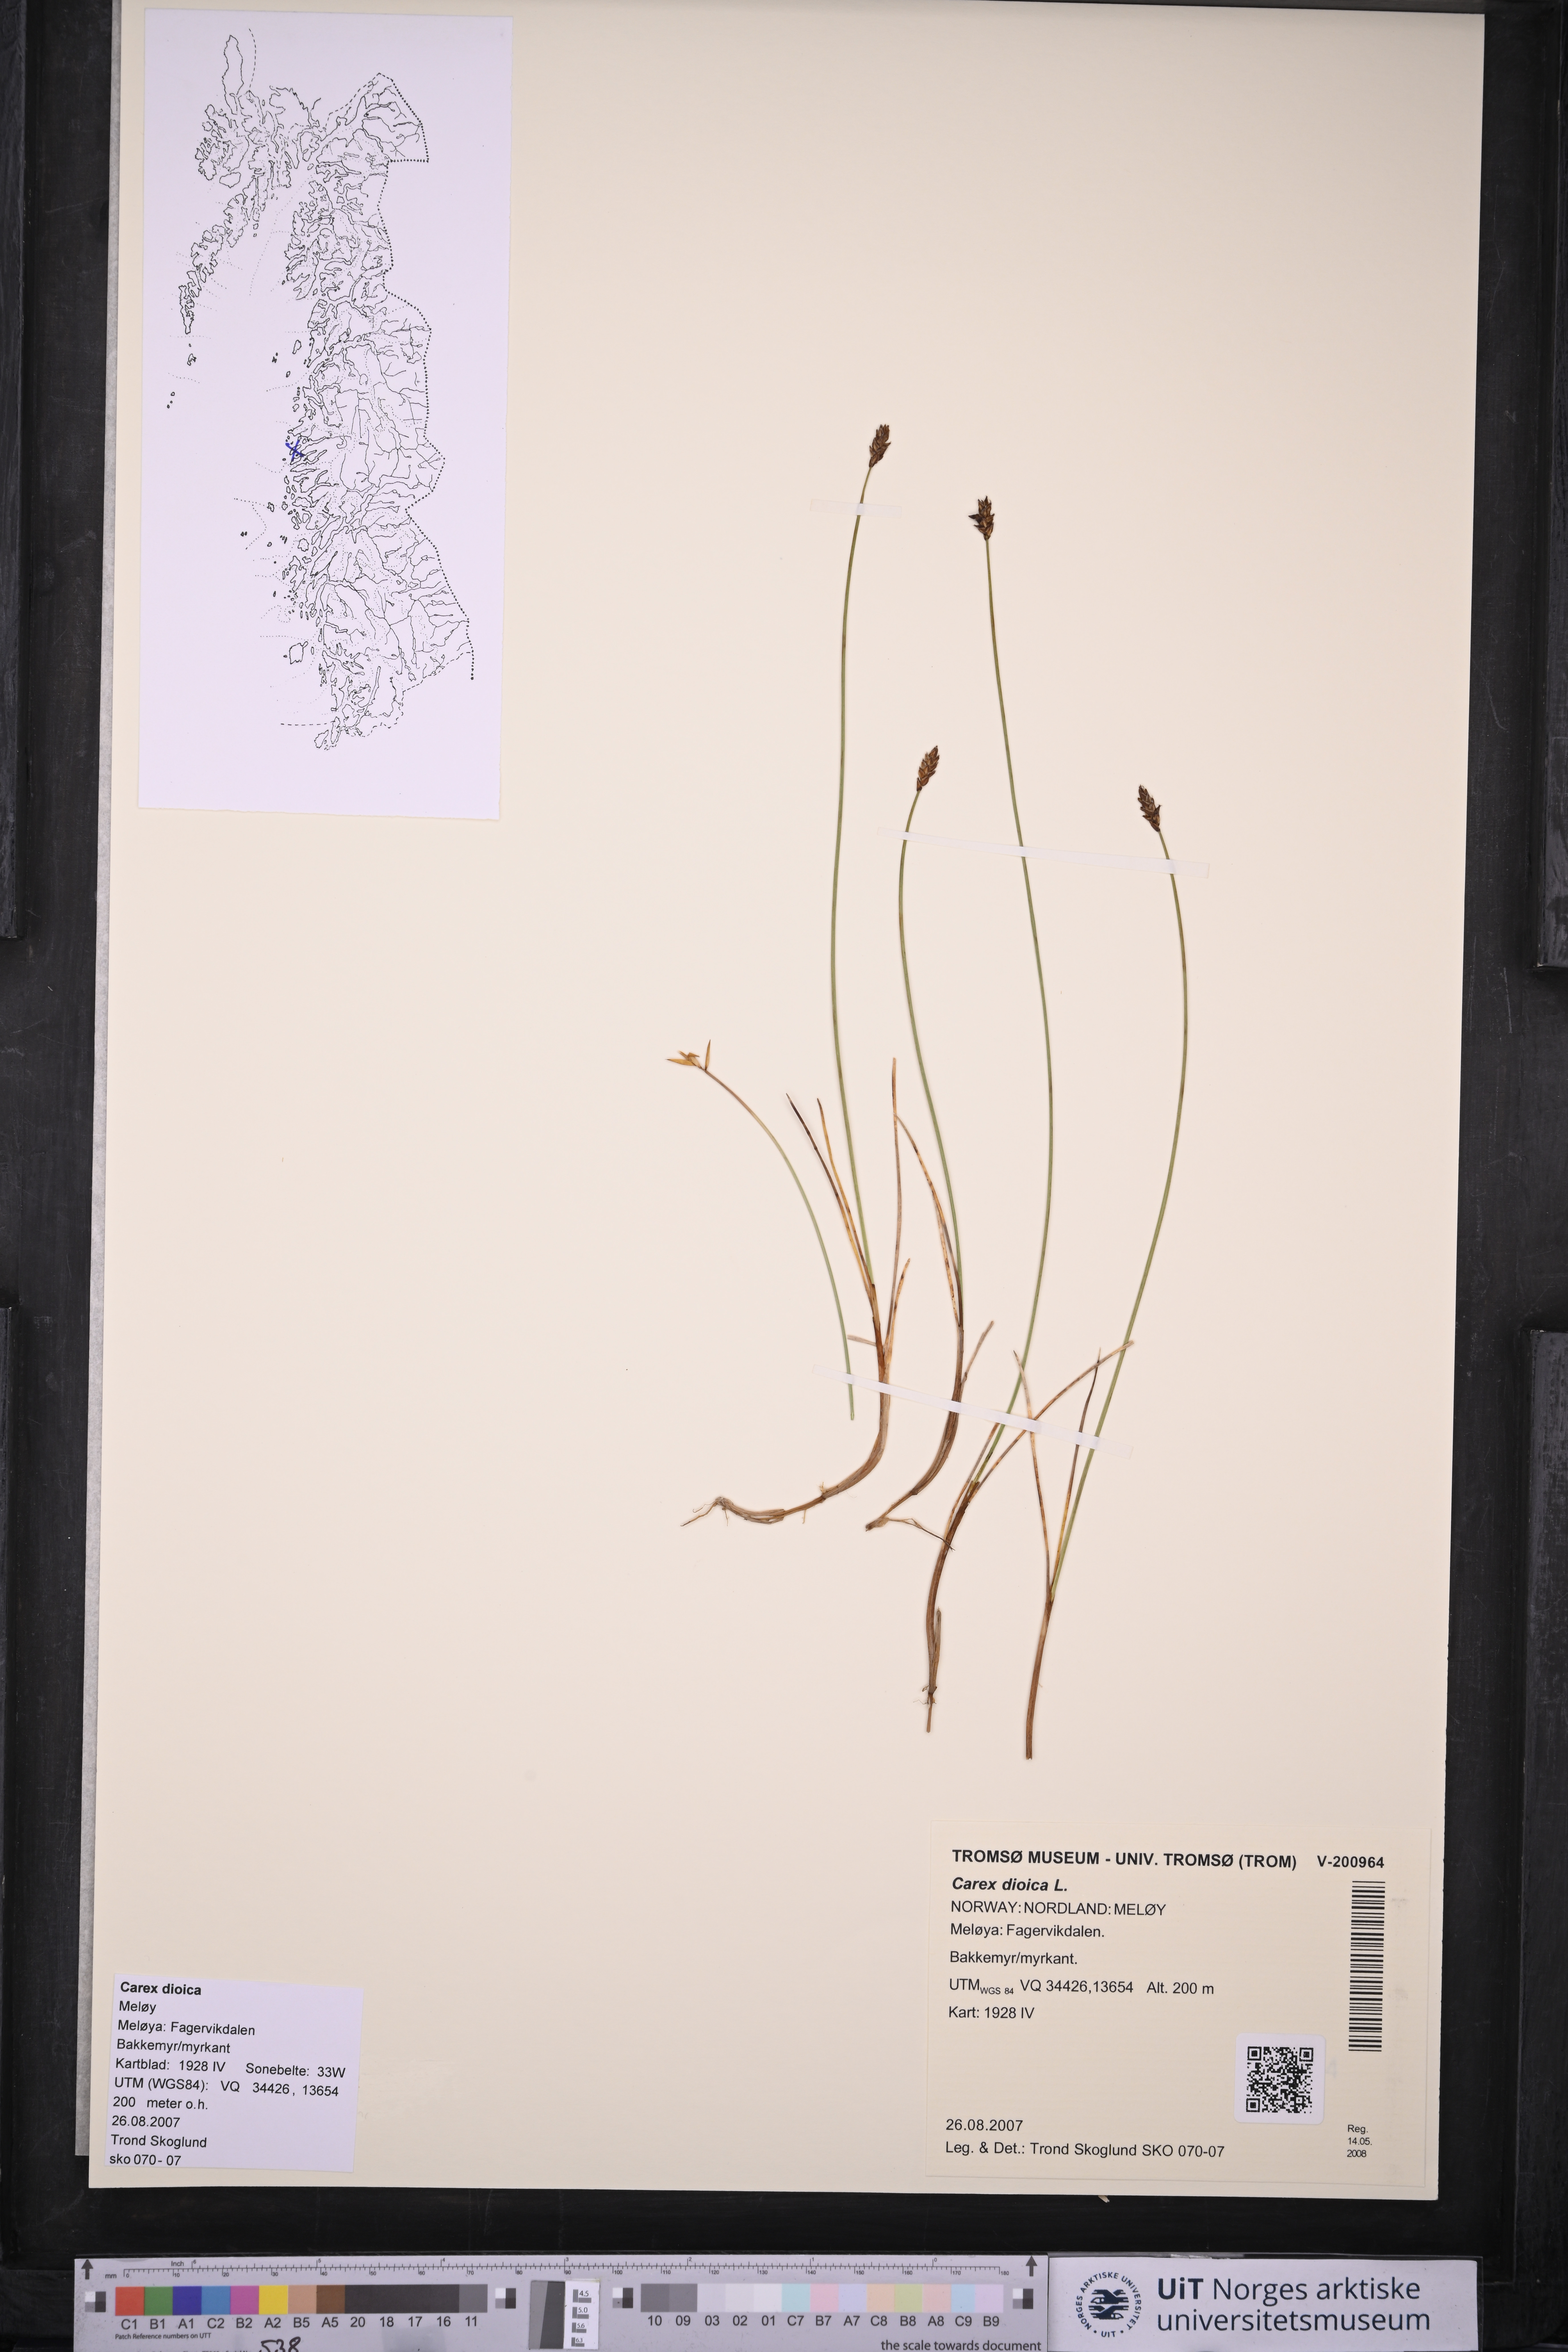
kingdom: Plantae
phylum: Tracheophyta
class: Liliopsida
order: Poales
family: Cyperaceae
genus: Carex
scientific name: Carex dioica
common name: Dioecious sedge
